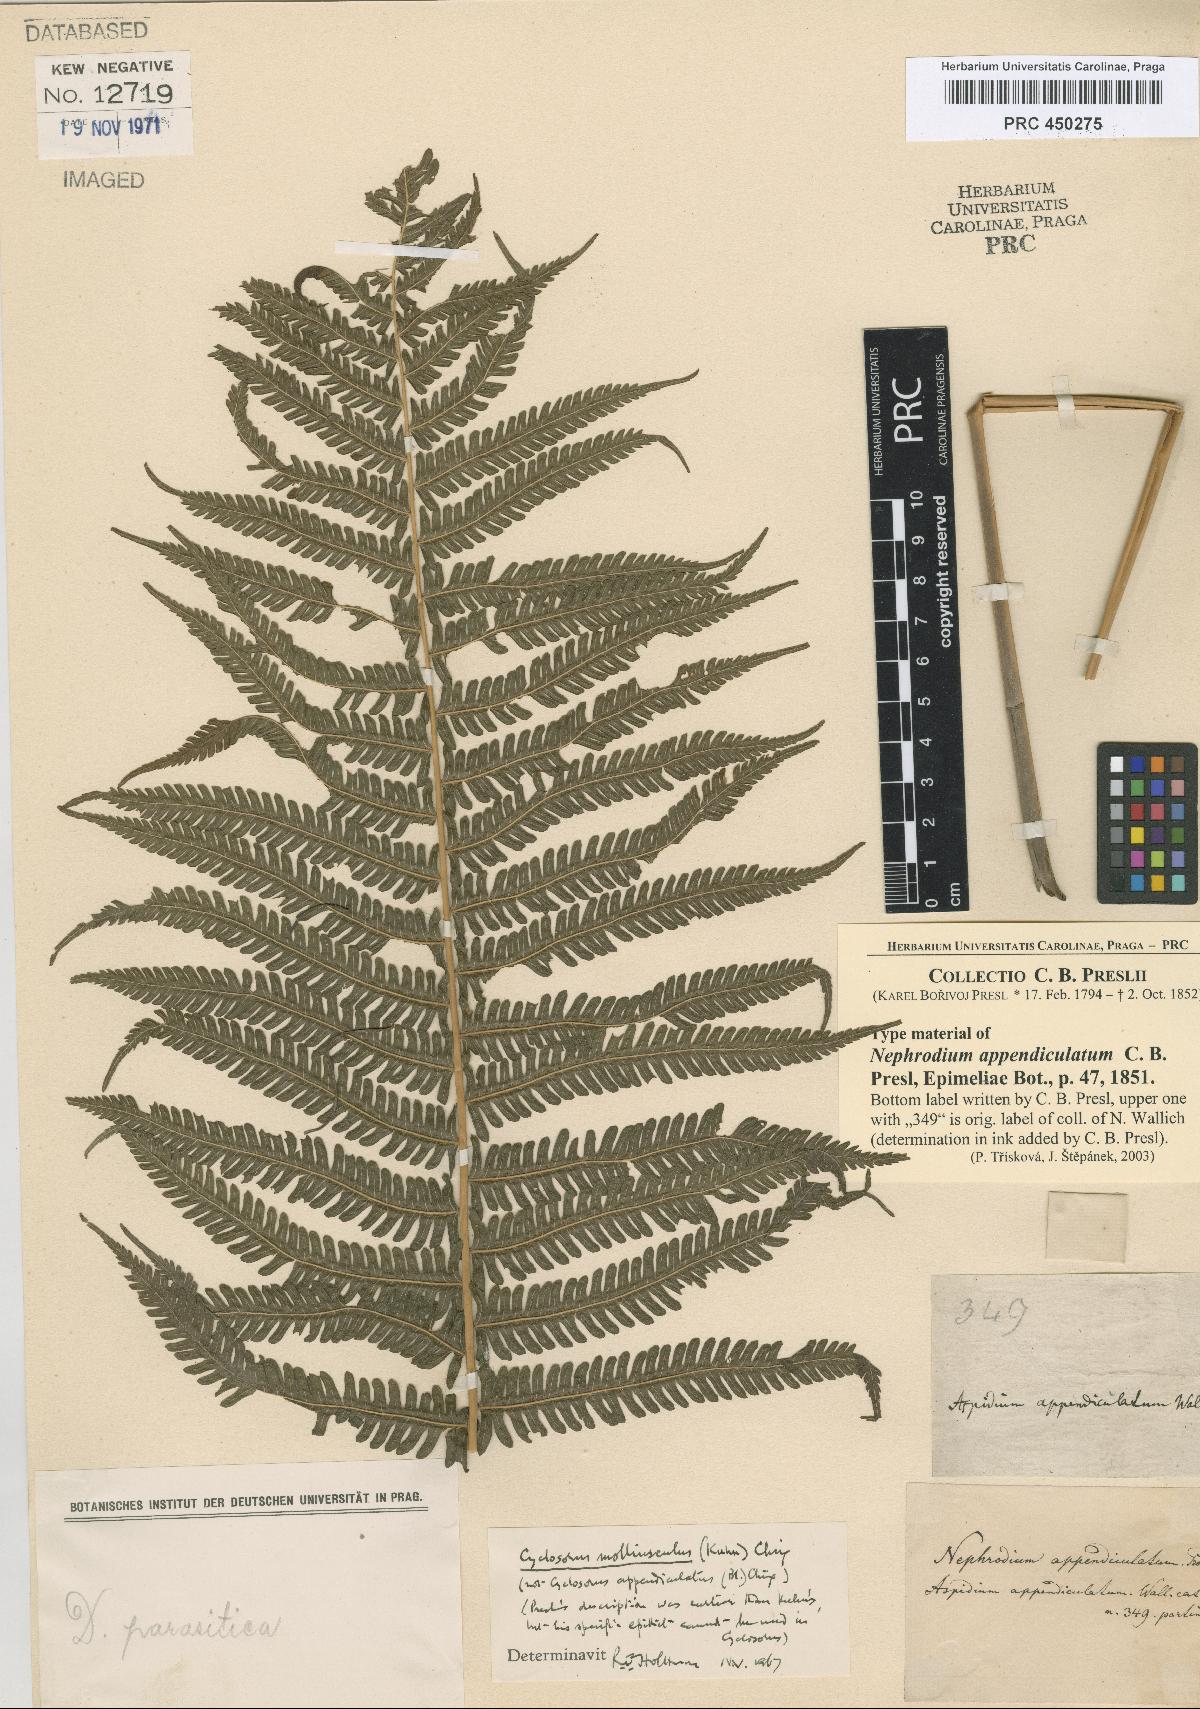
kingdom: Plantae
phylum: Tracheophyta
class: Polypodiopsida
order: Polypodiales
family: Thelypteridaceae
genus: Christella
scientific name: Christella procera
